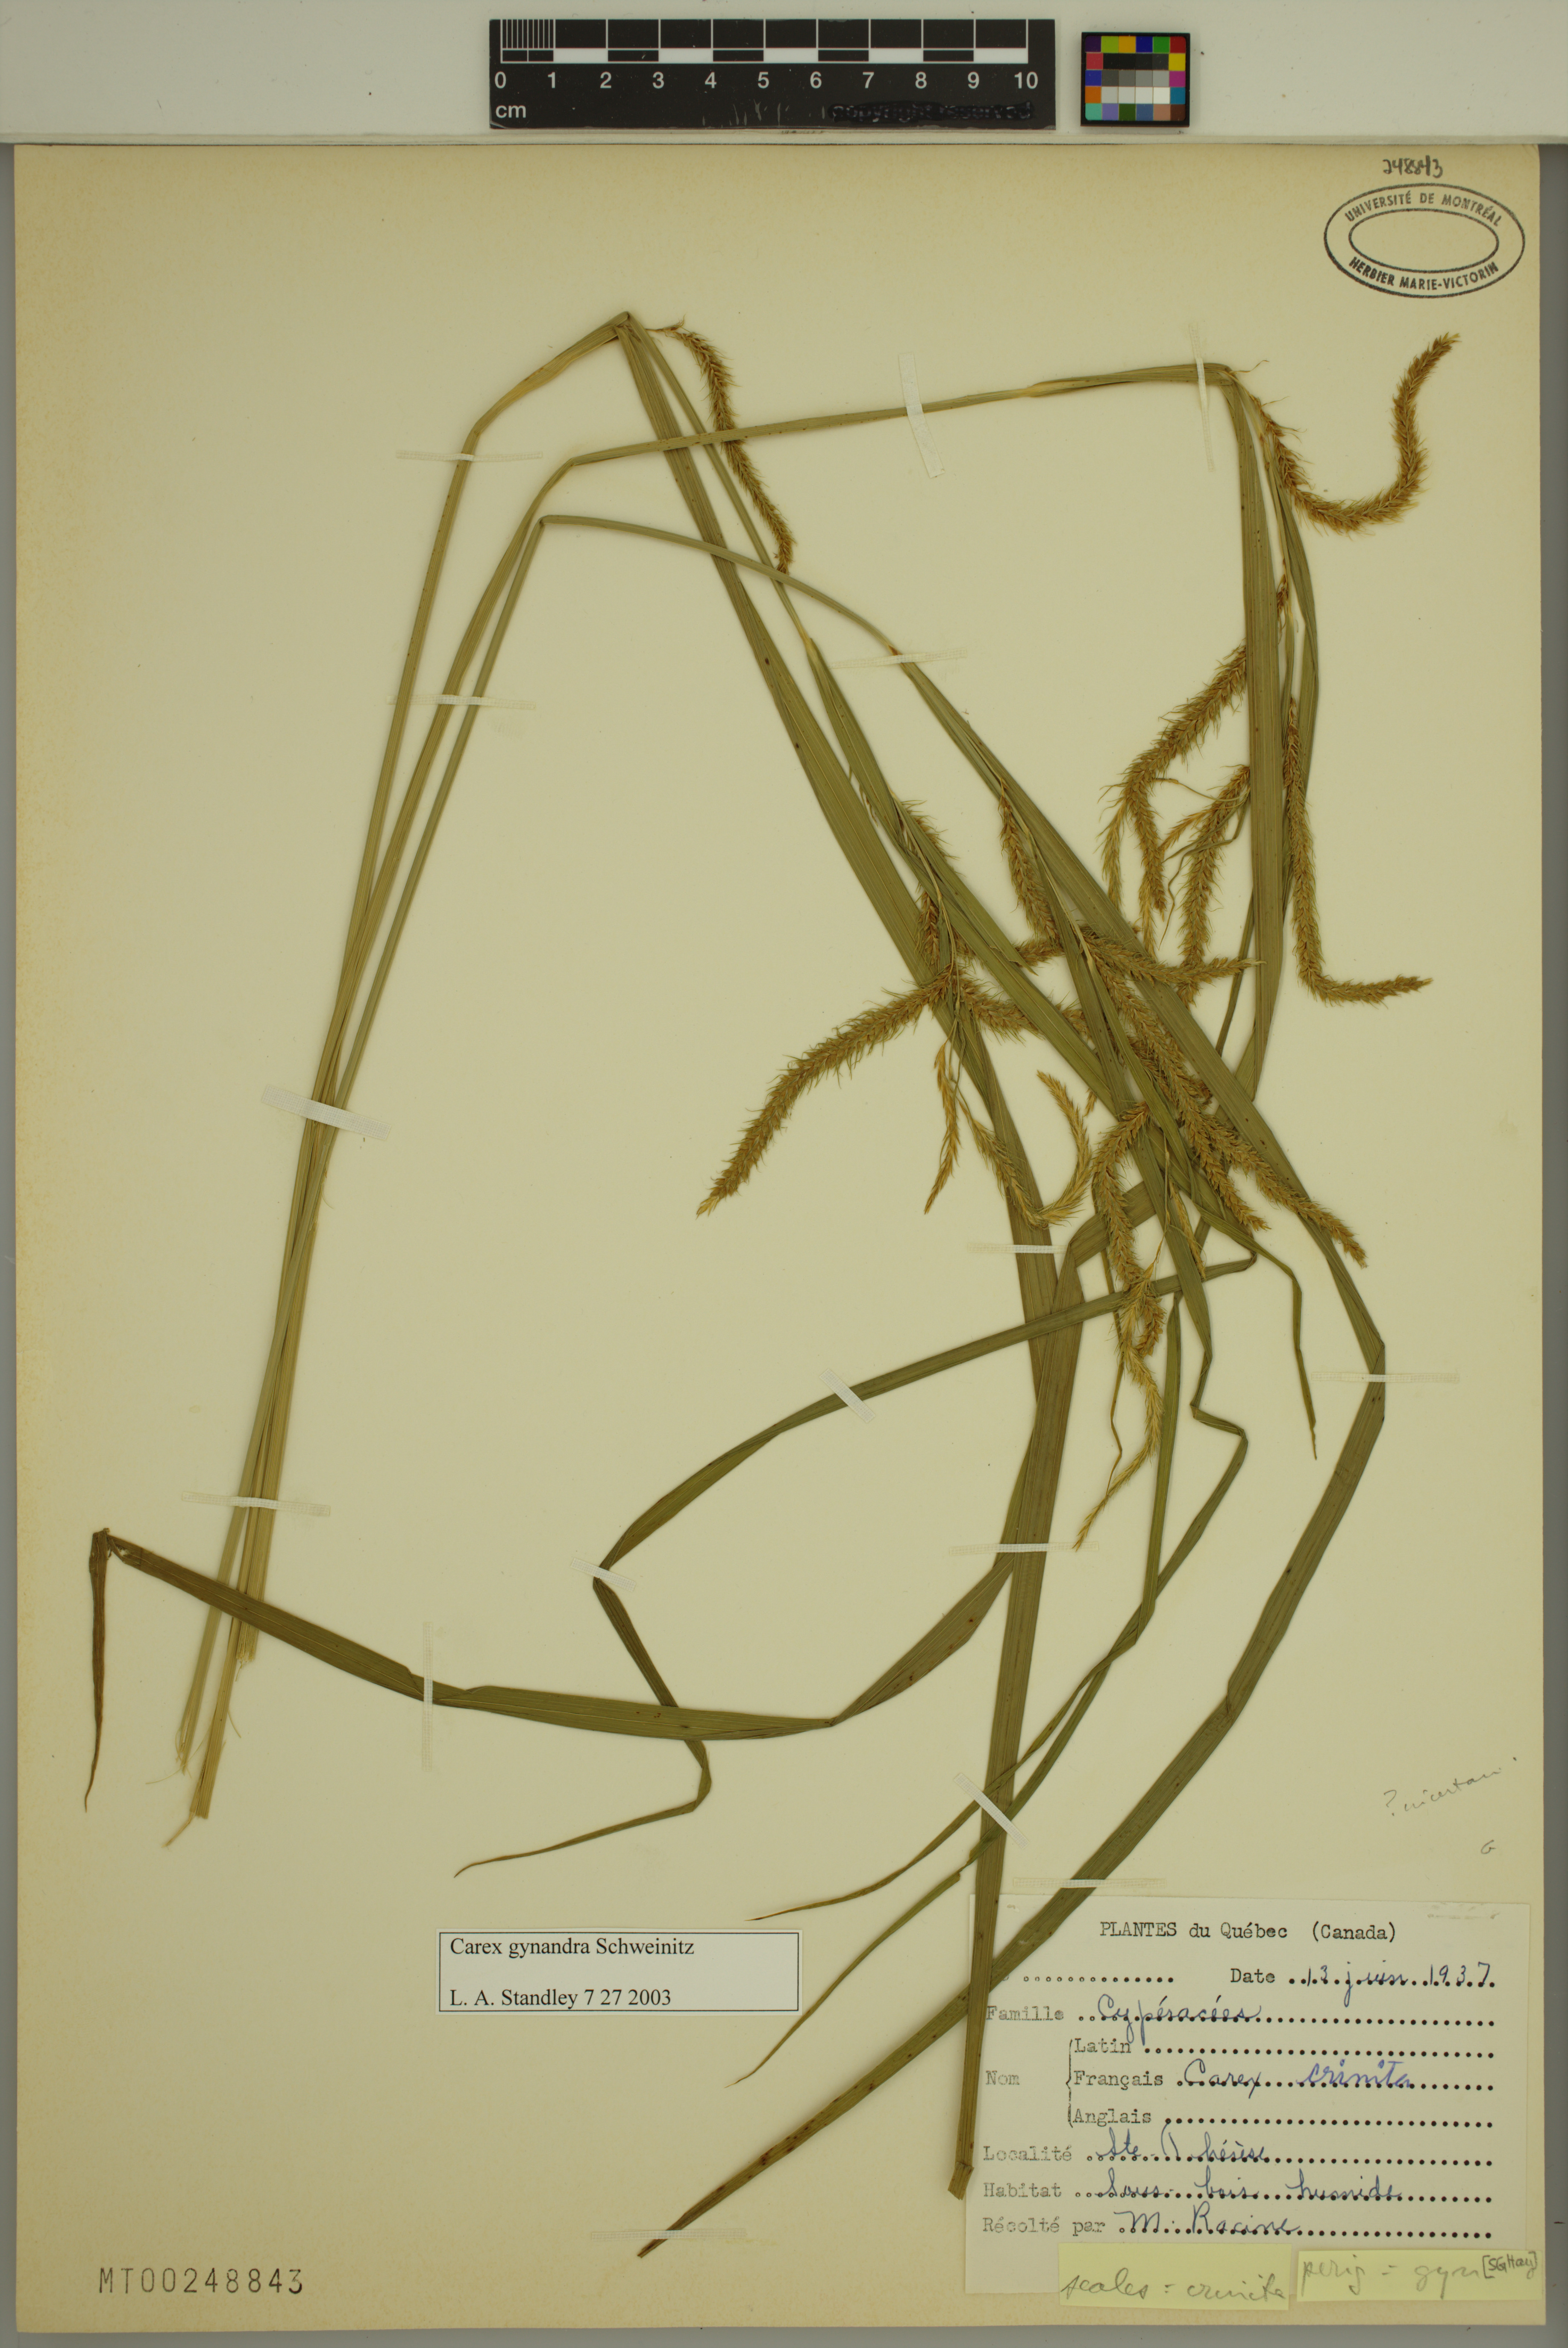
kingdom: Plantae
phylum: Tracheophyta
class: Liliopsida
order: Poales
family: Cyperaceae
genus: Carex
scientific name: Carex gynandra
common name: Nodding sedge
